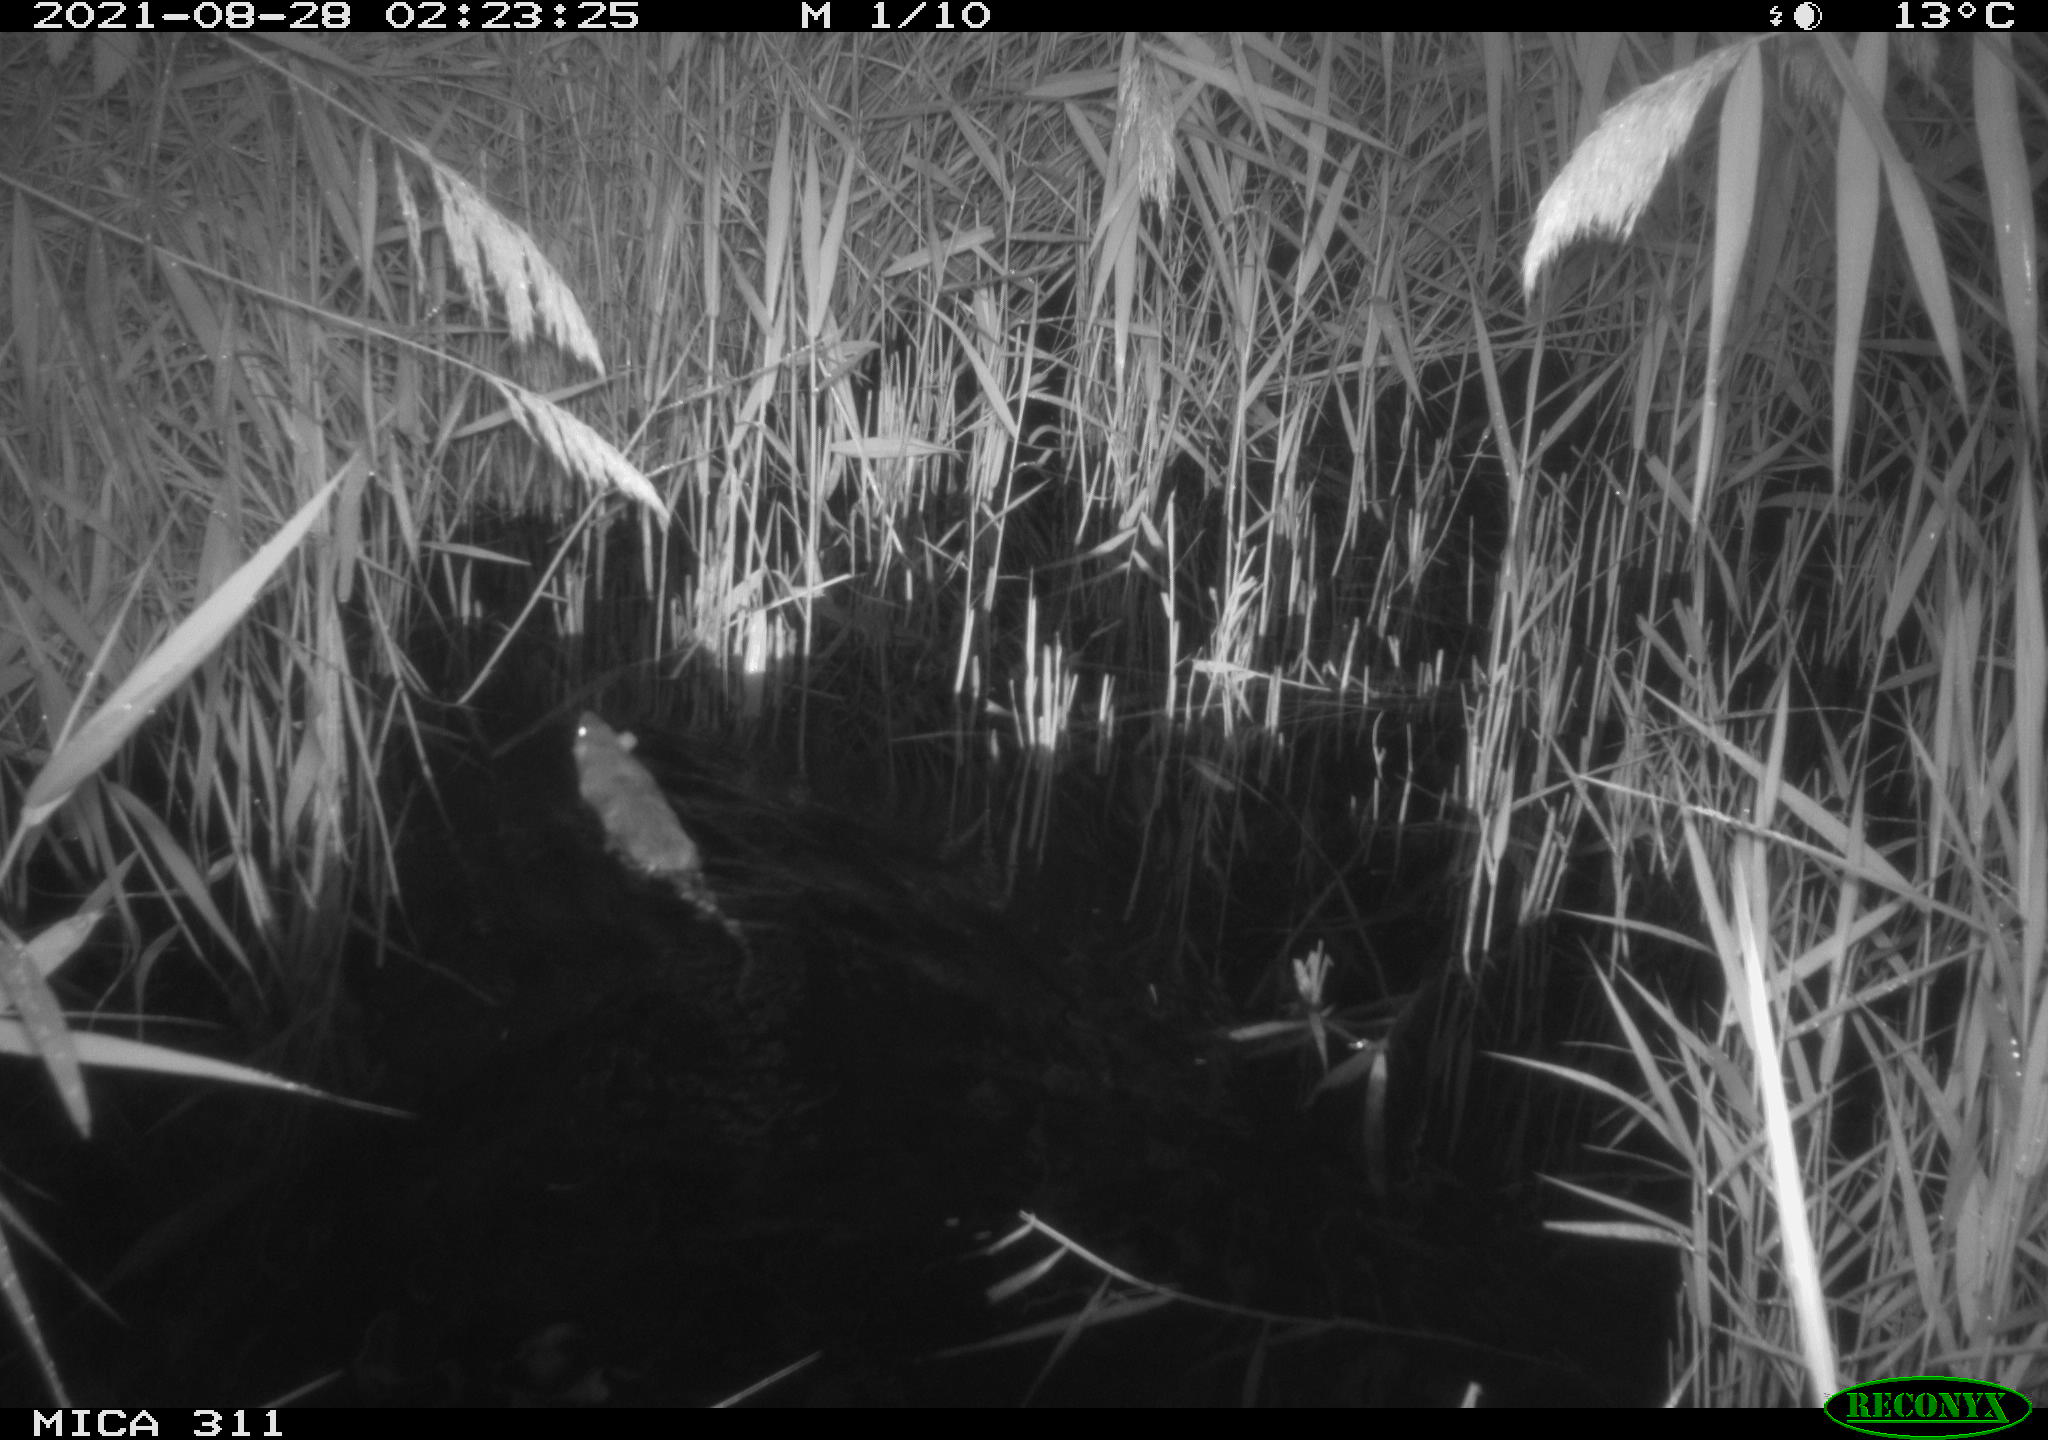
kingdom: Animalia
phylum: Chordata
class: Mammalia
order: Rodentia
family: Muridae
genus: Rattus
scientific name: Rattus norvegicus
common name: Brown rat
